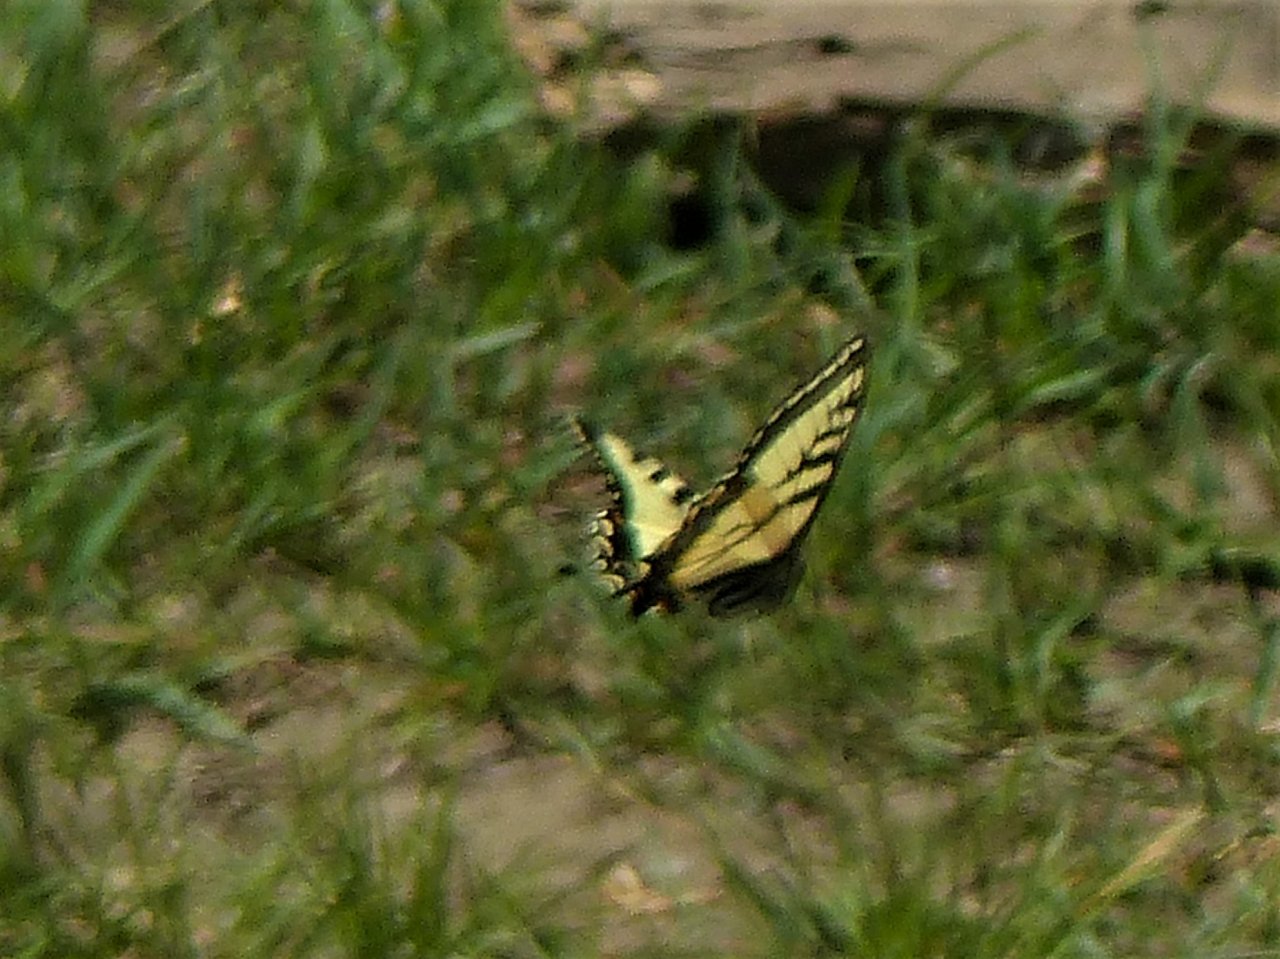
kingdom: Animalia
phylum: Arthropoda
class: Insecta
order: Lepidoptera
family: Papilionidae
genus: Pterourus
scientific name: Pterourus canadensis
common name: Canadian Tiger Swallowtail
